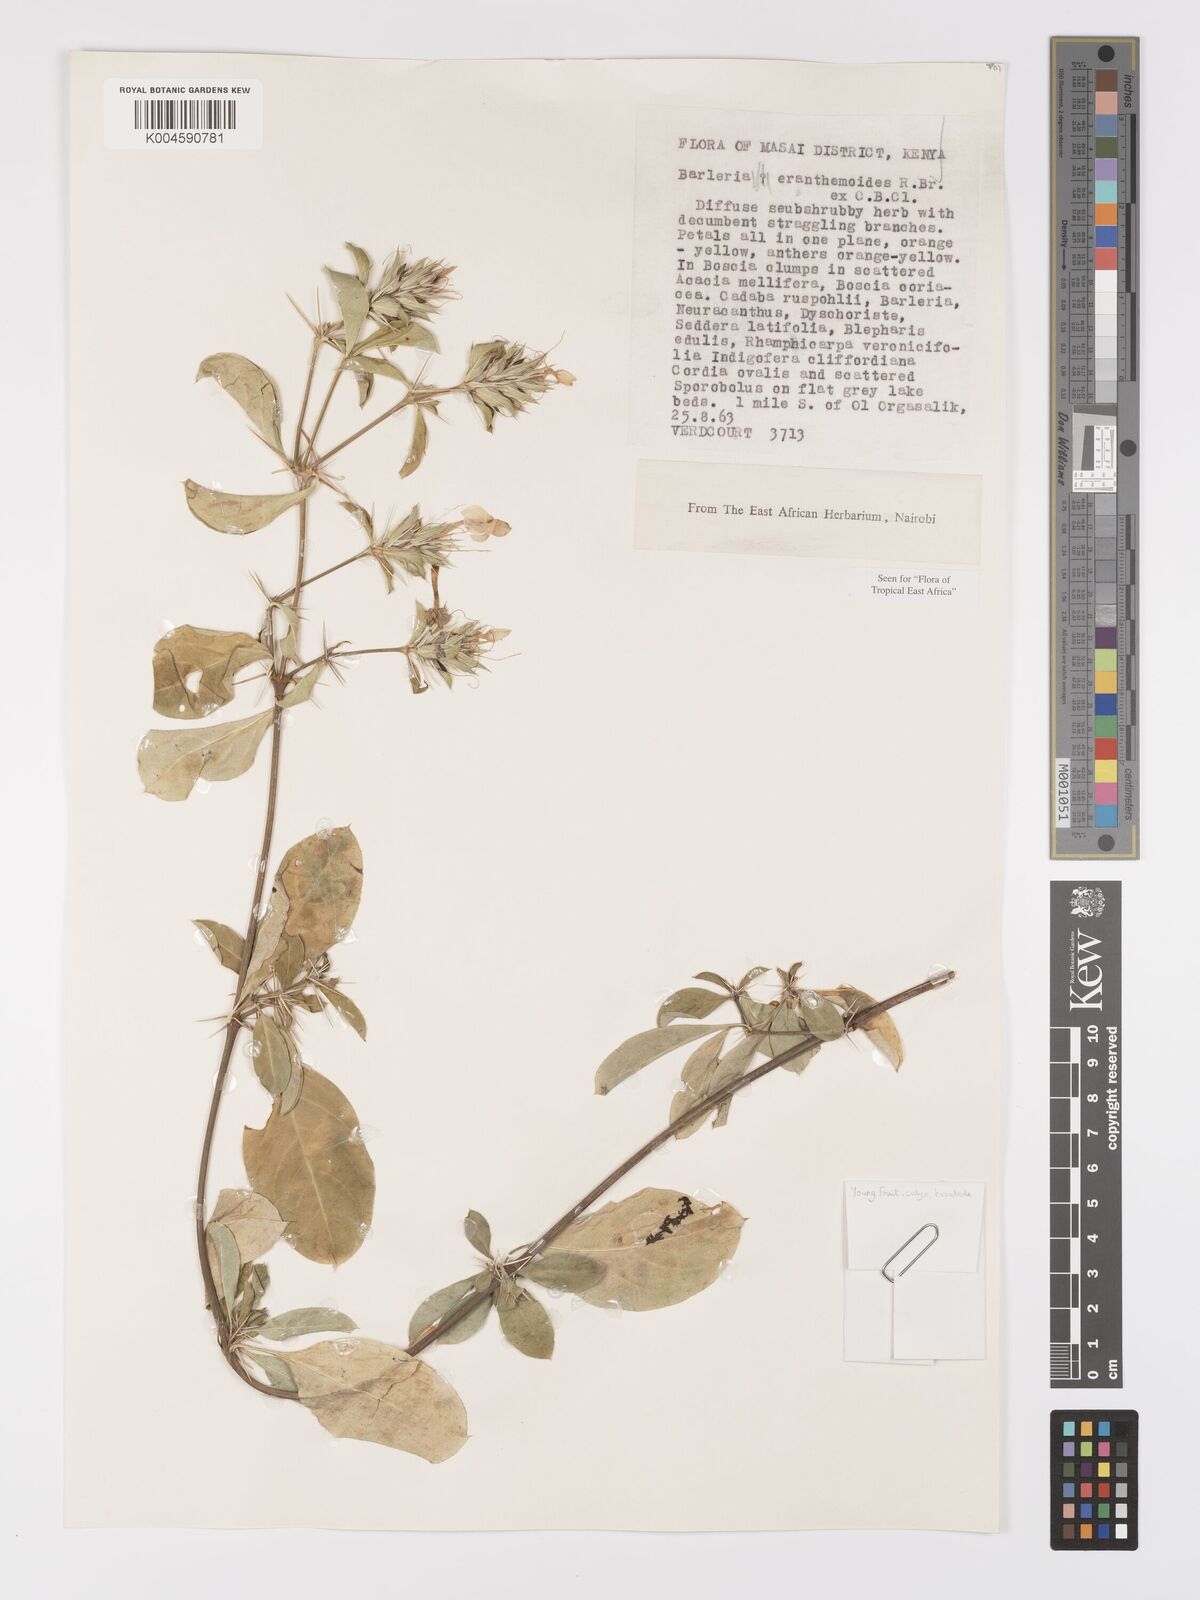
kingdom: Plantae
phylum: Tracheophyta
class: Magnoliopsida
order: Lamiales
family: Acanthaceae
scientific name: Acanthaceae
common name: Acanthaceae
